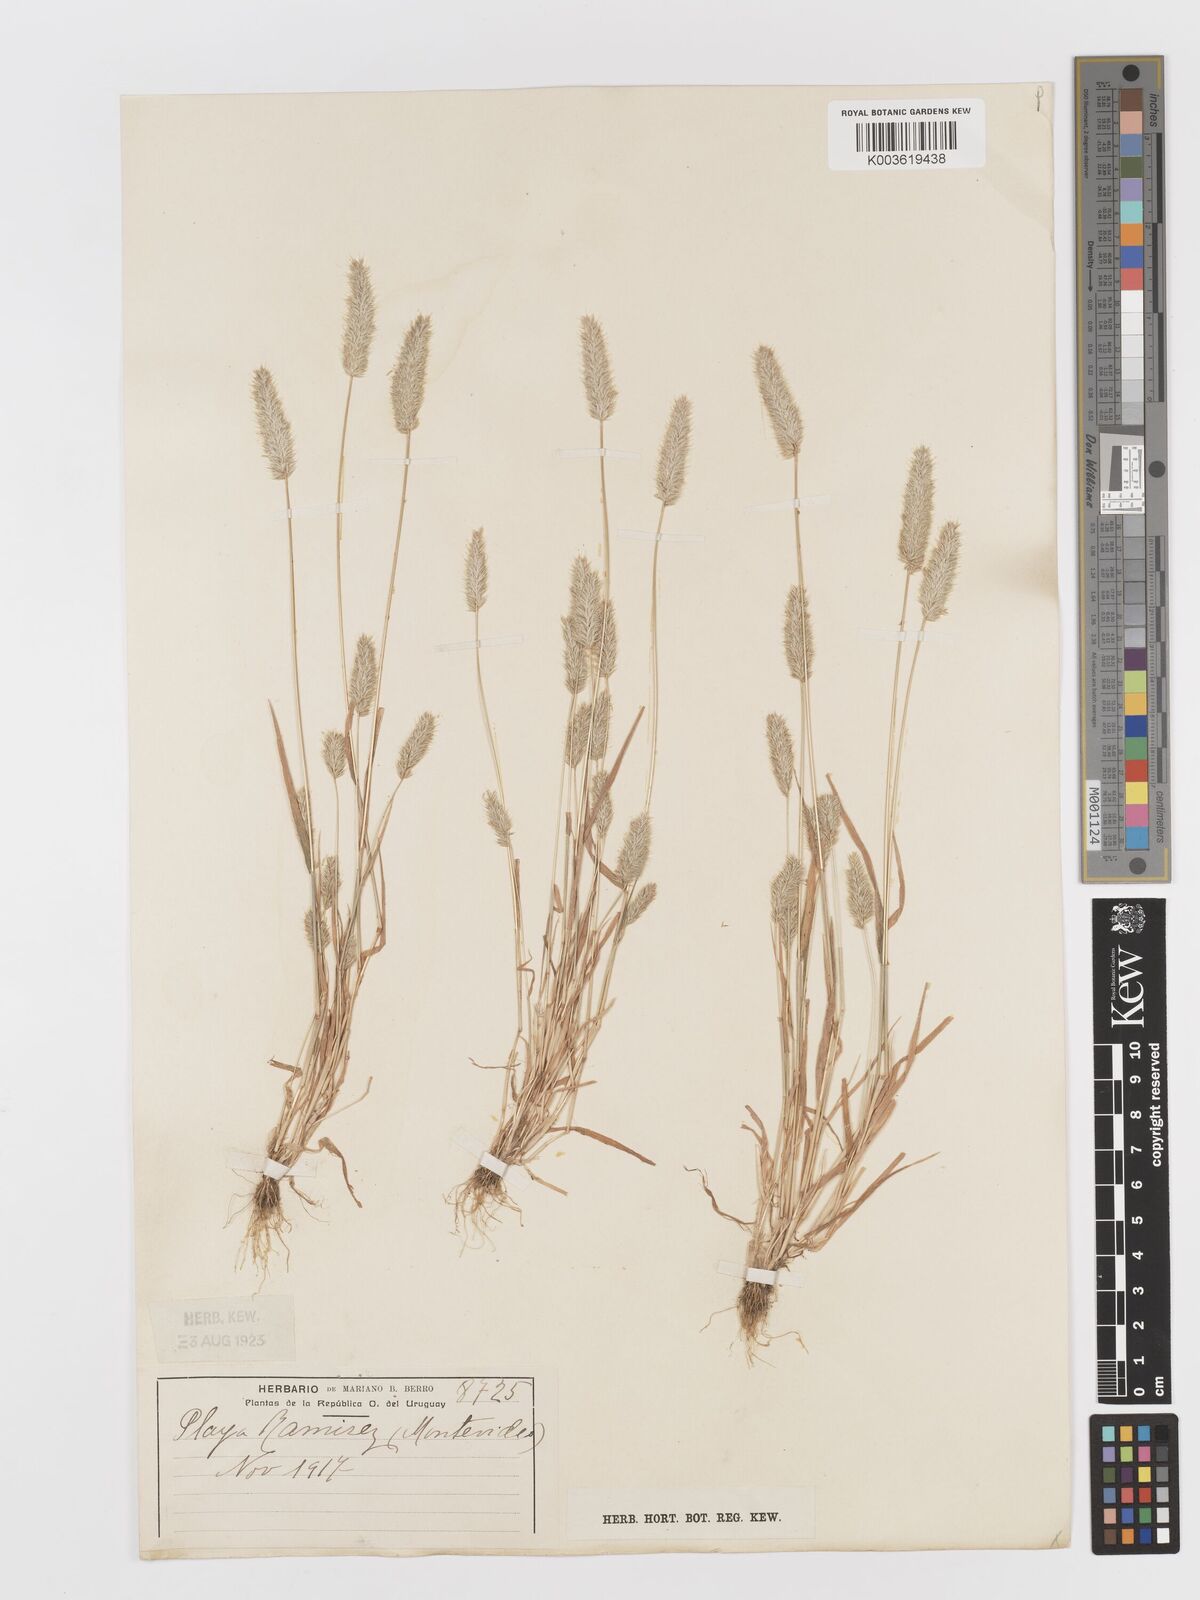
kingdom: Plantae
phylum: Tracheophyta
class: Liliopsida
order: Poales
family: Poaceae
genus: Rostraria
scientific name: Rostraria cristata
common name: Mediterranean hair-grass
